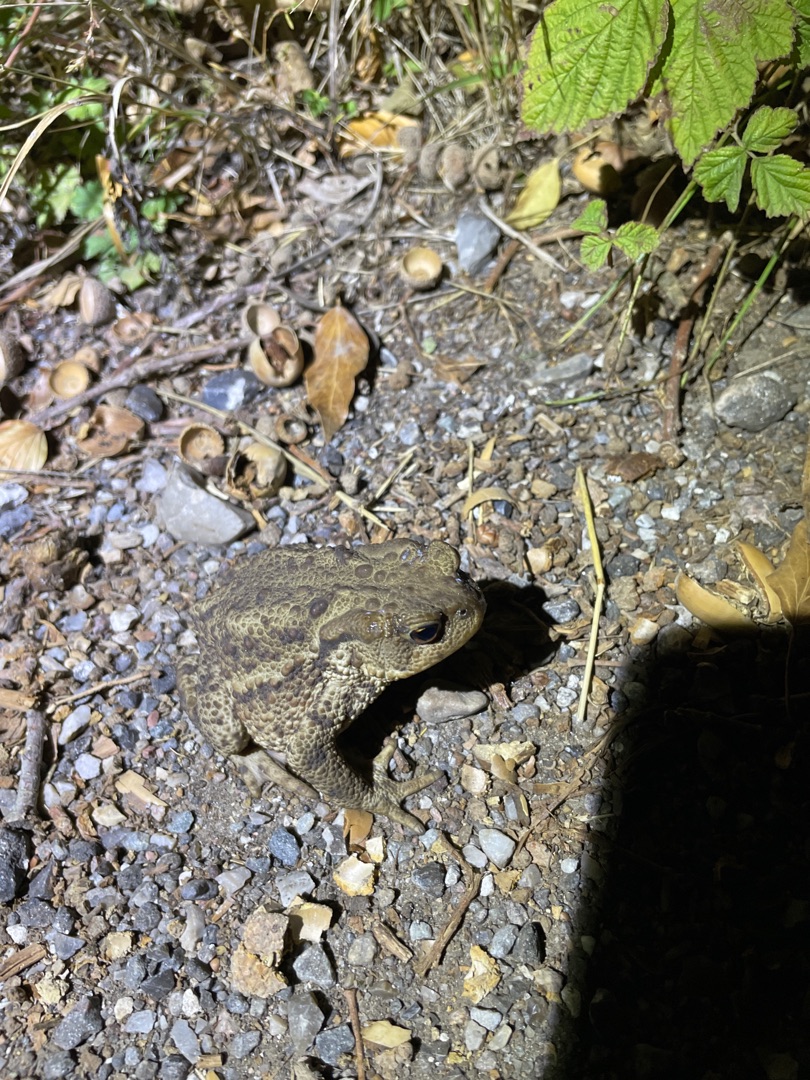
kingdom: Animalia
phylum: Chordata
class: Amphibia
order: Anura
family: Bufonidae
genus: Bufo
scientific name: Bufo bufo
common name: Skrubtudse
